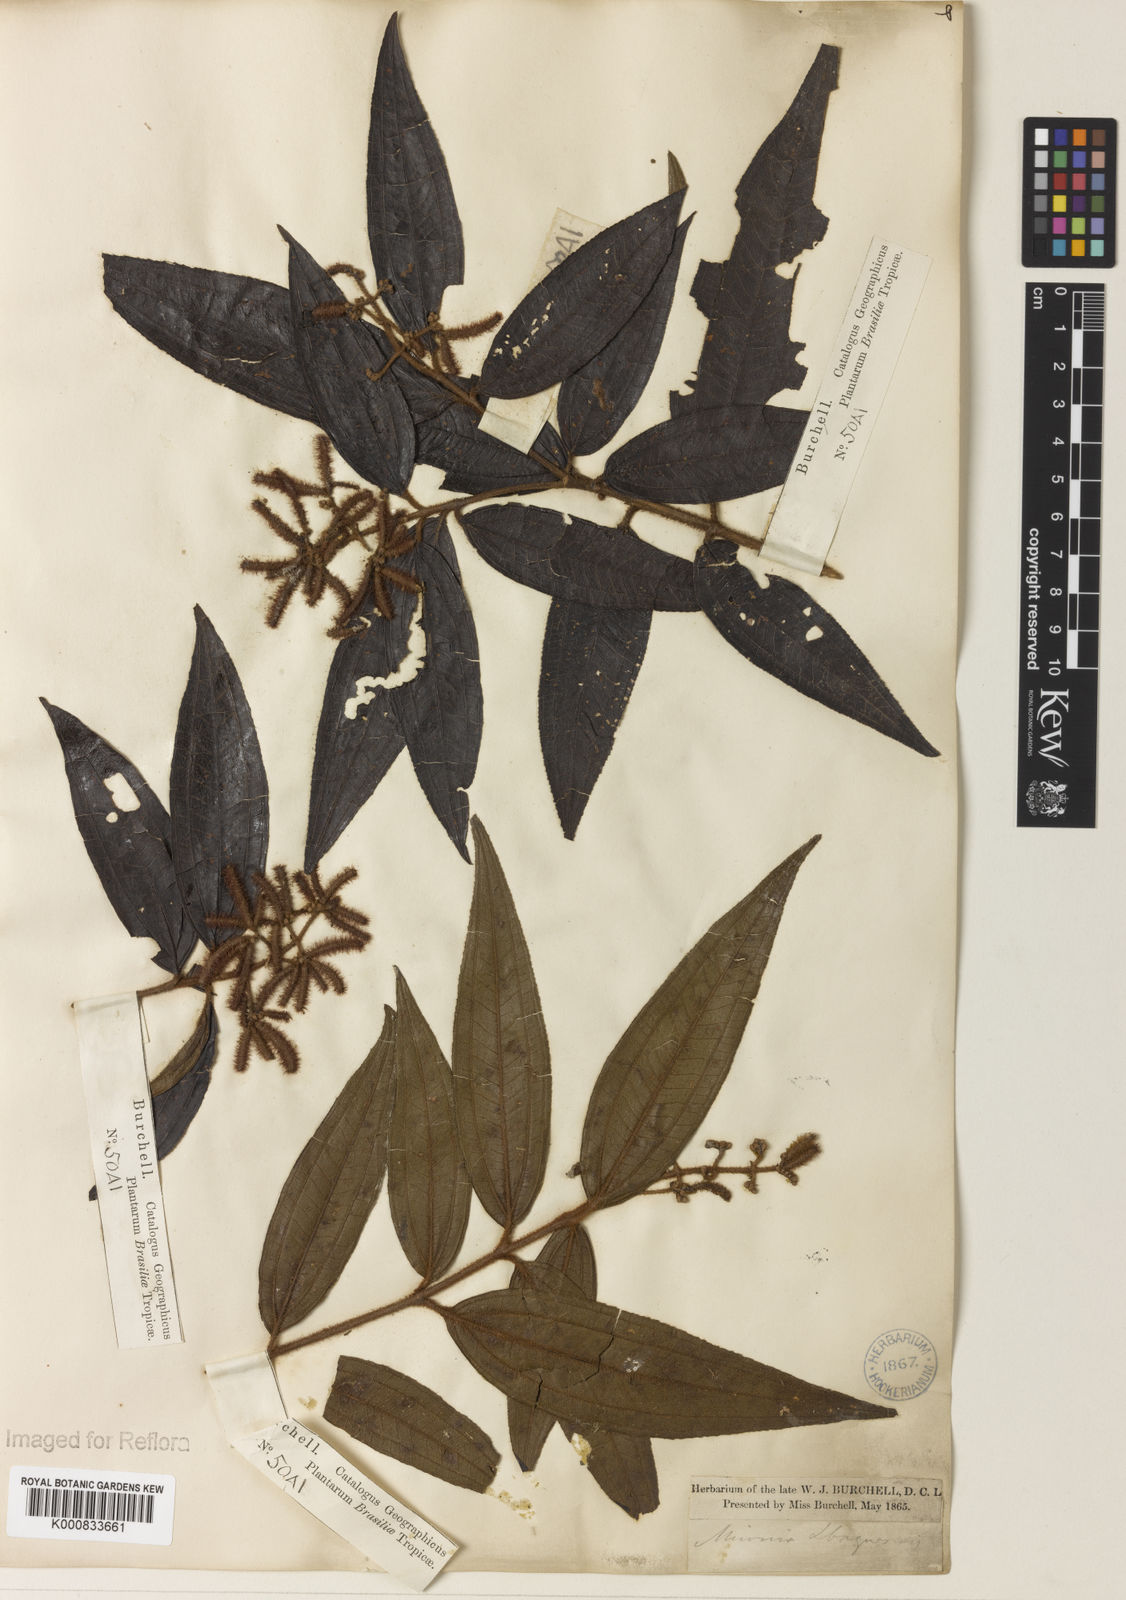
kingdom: Plantae
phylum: Tracheophyta
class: Magnoliopsida
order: Myrtales
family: Melastomataceae
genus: Miconia
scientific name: Miconia ibaguensis
